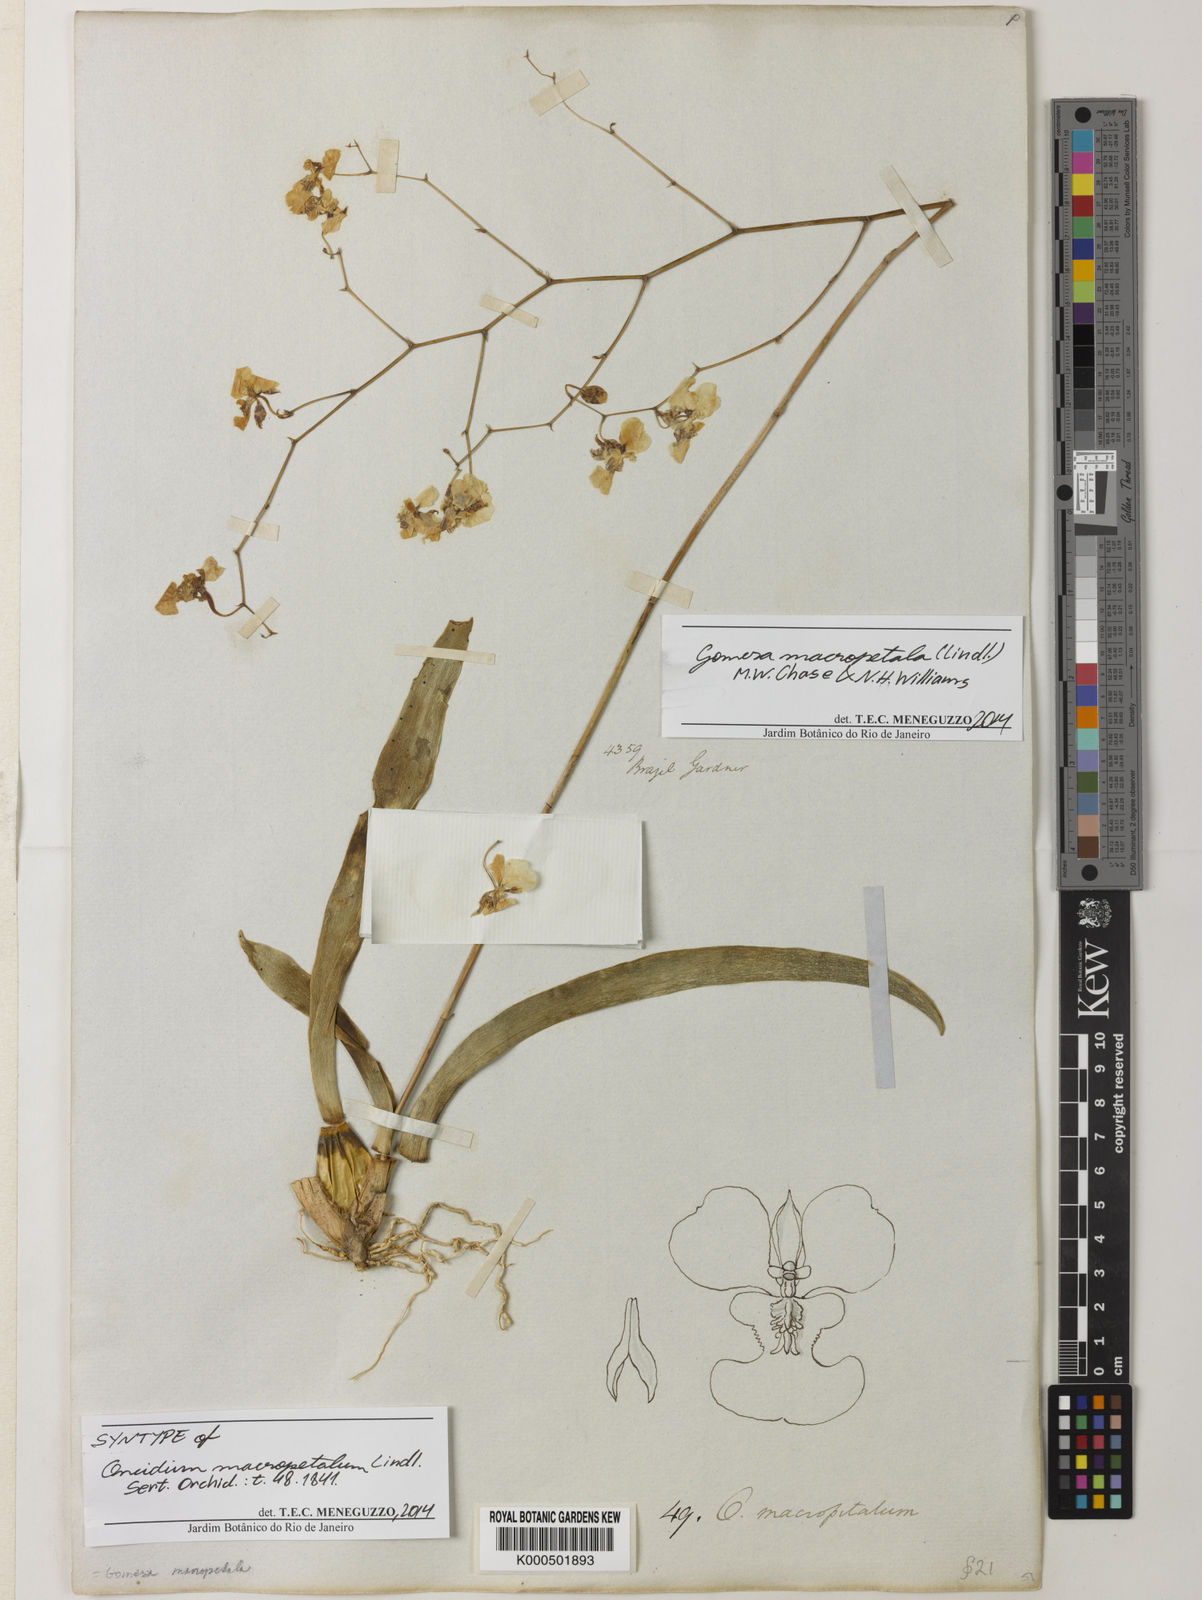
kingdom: Plantae
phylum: Tracheophyta
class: Liliopsida
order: Asparagales
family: Orchidaceae
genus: Gomesa
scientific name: Gomesa macropetala
